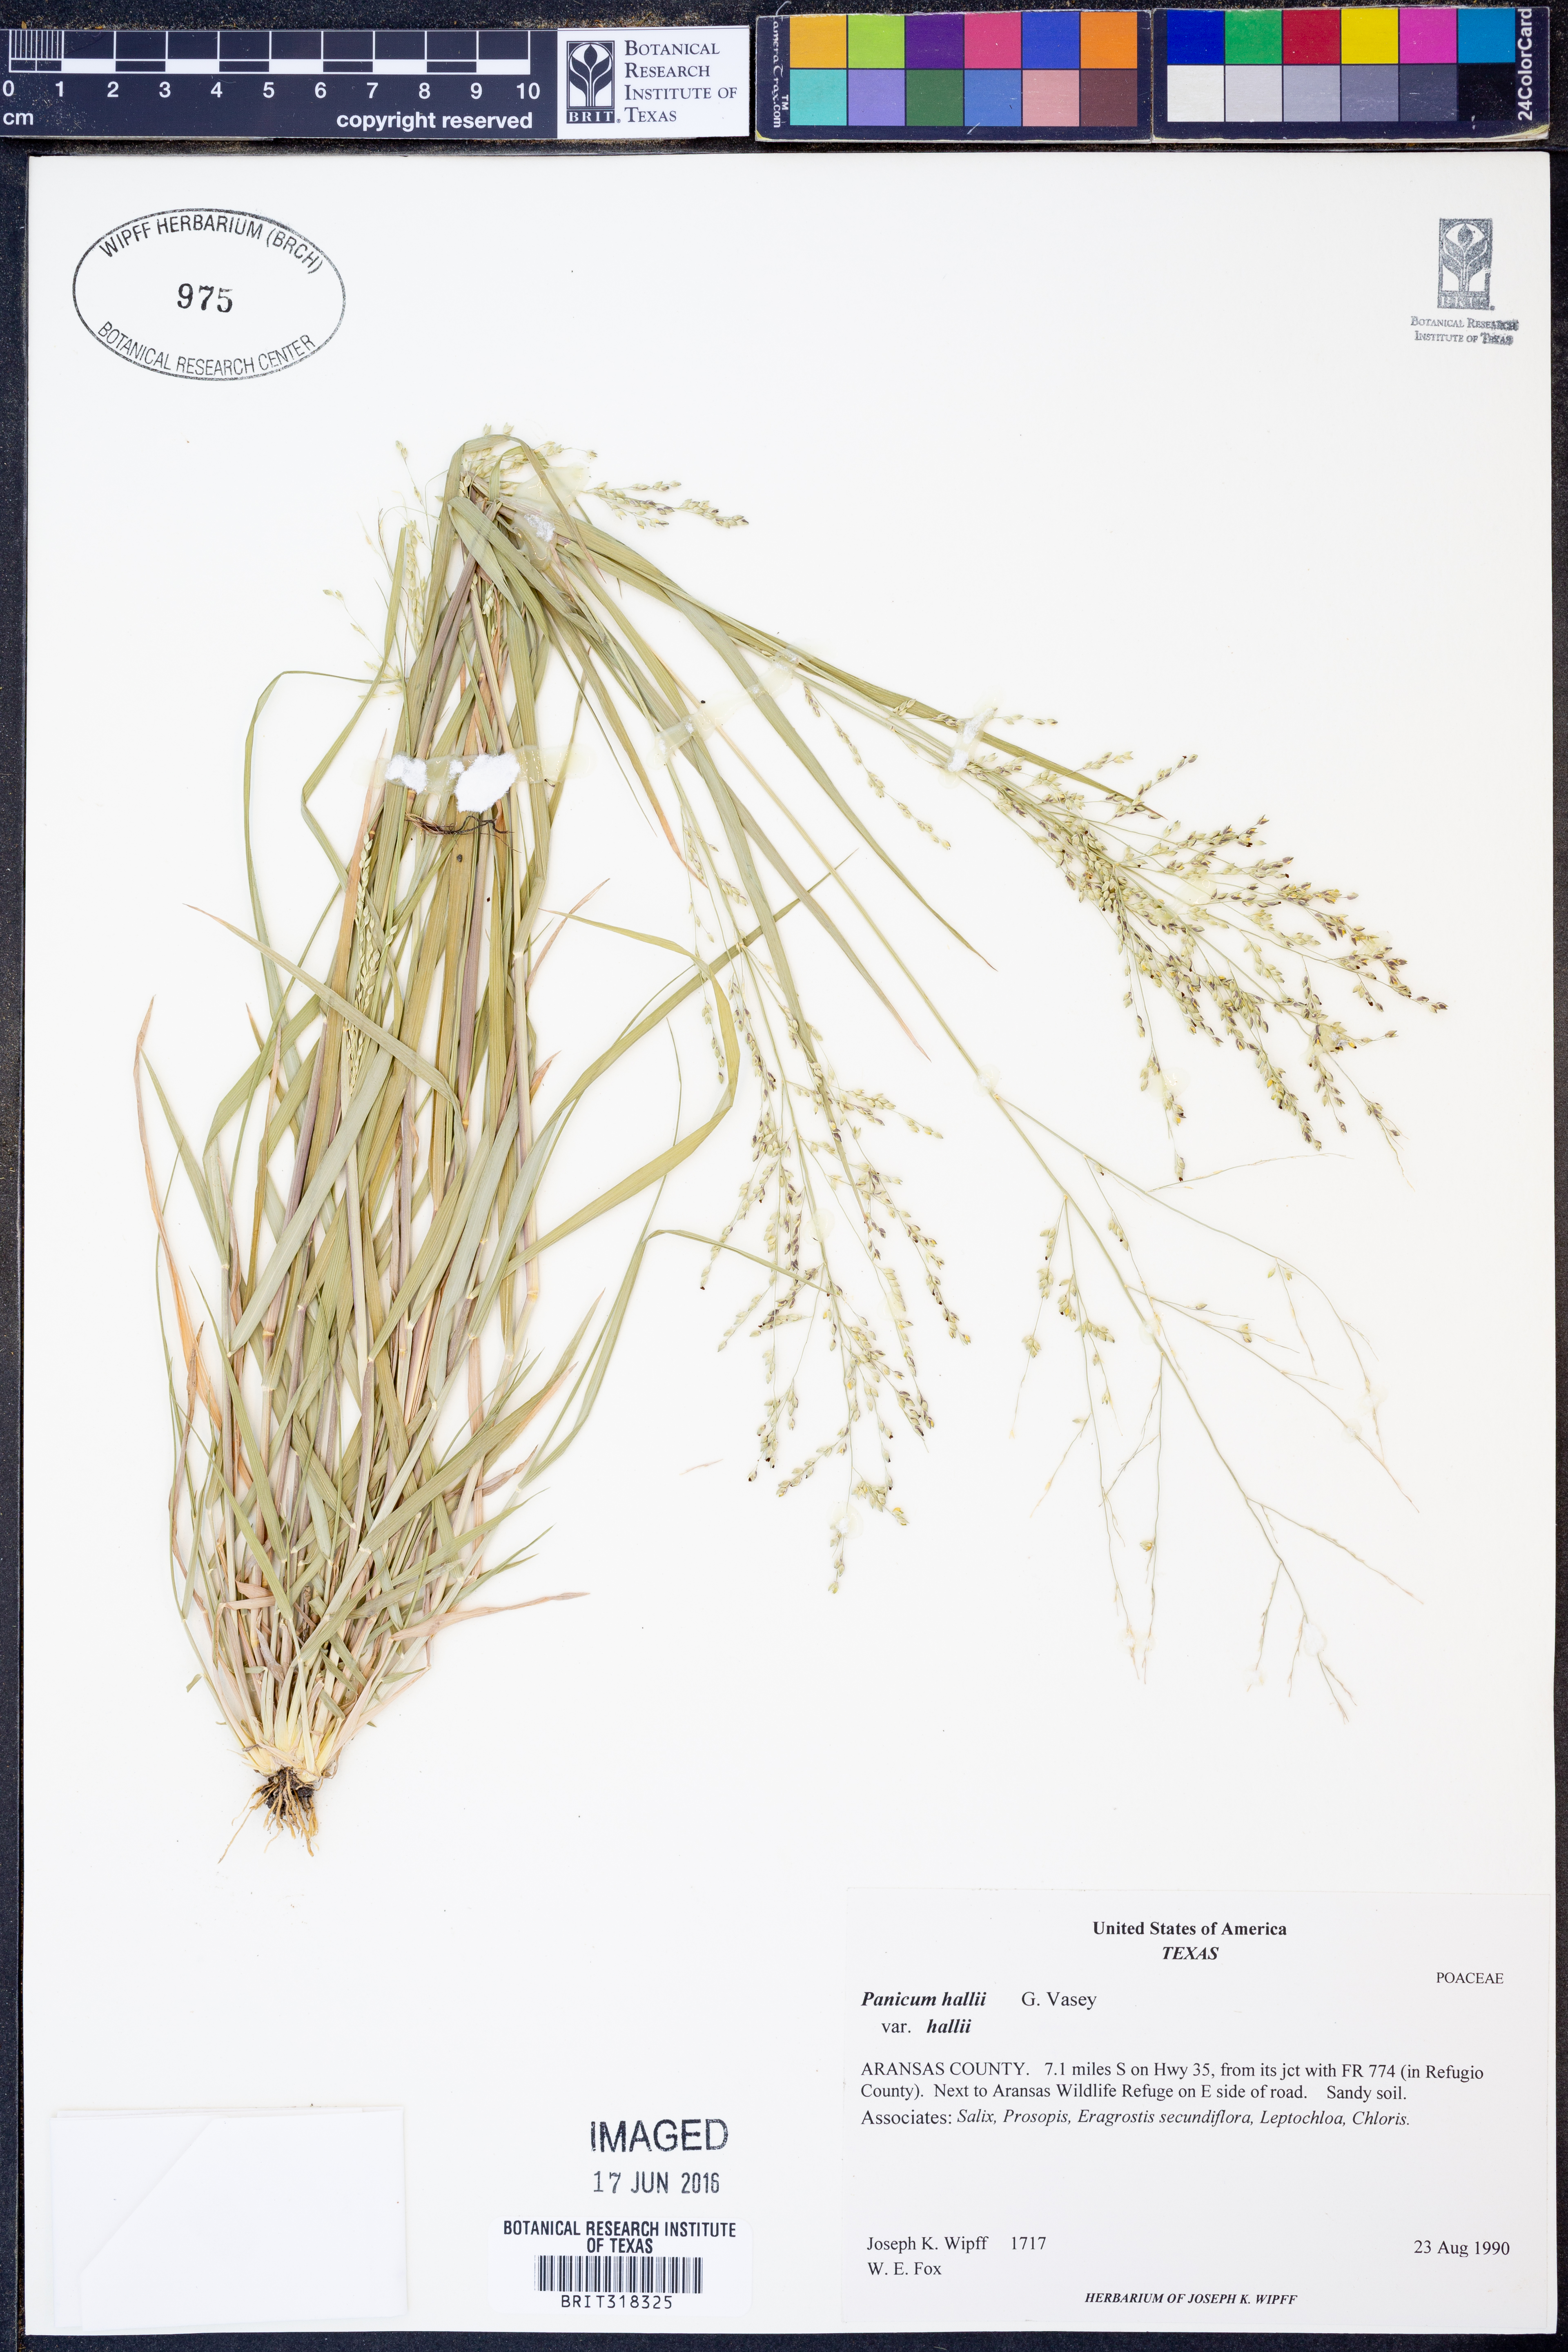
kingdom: Plantae
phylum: Tracheophyta
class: Liliopsida
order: Poales
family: Poaceae
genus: Panicum
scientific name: Panicum hallii
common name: Hall's witchgrass
